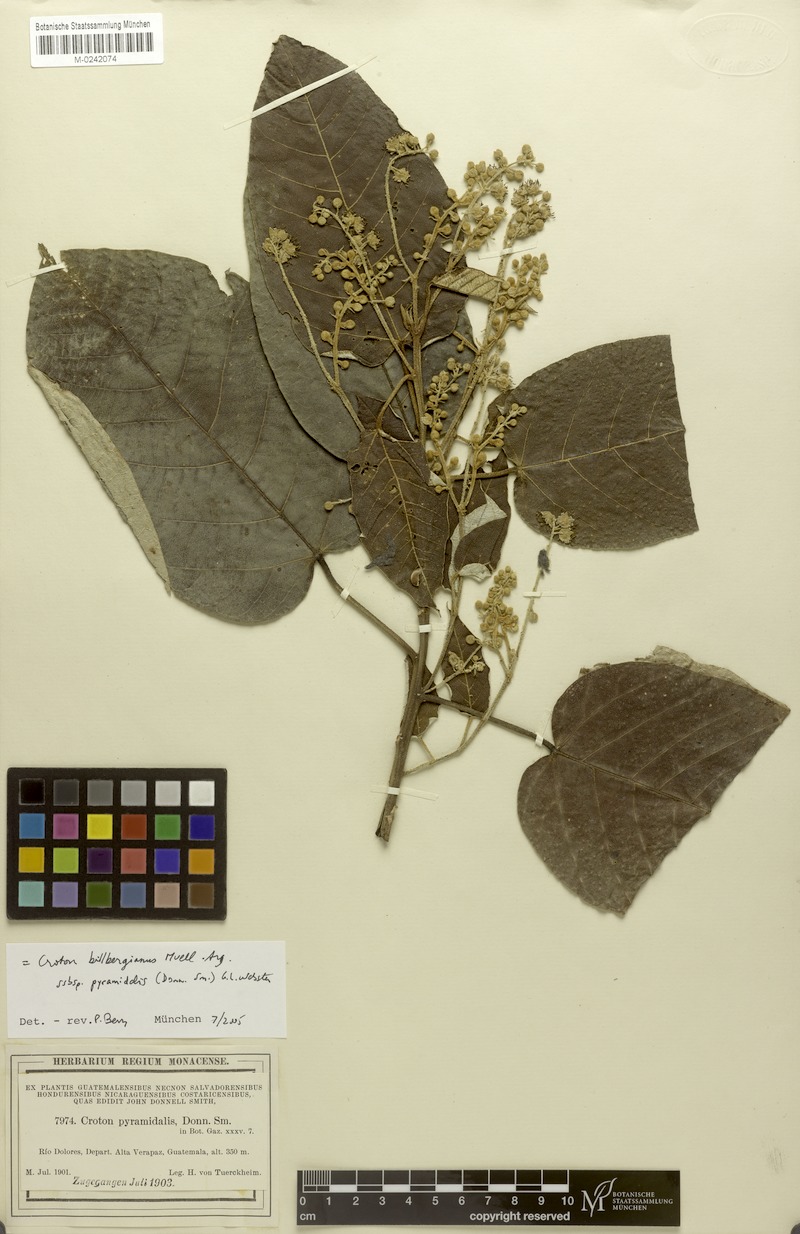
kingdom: Plantae
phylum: Tracheophyta
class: Magnoliopsida
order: Malpighiales
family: Euphorbiaceae
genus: Croton
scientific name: Croton billbergianus
